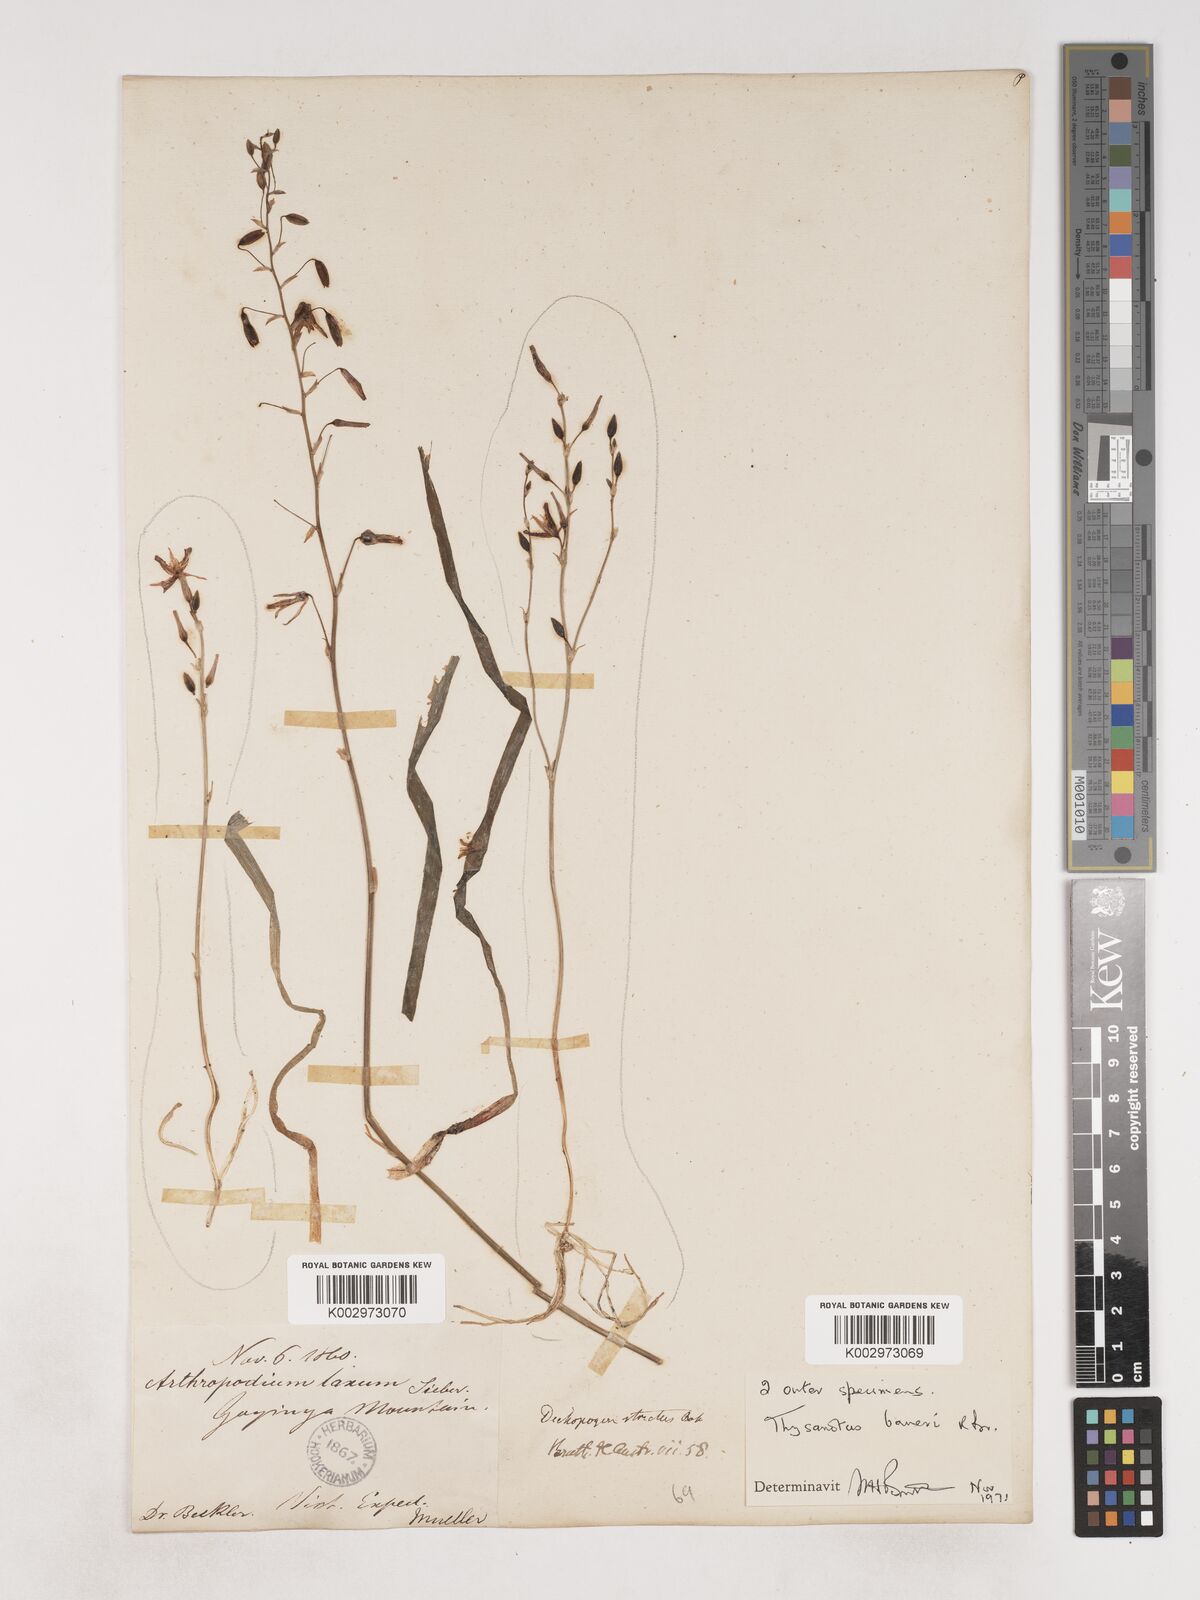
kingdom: Plantae
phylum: Tracheophyta
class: Liliopsida
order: Asparagales
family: Asparagaceae
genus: Thysanotus
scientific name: Thysanotus baueri
